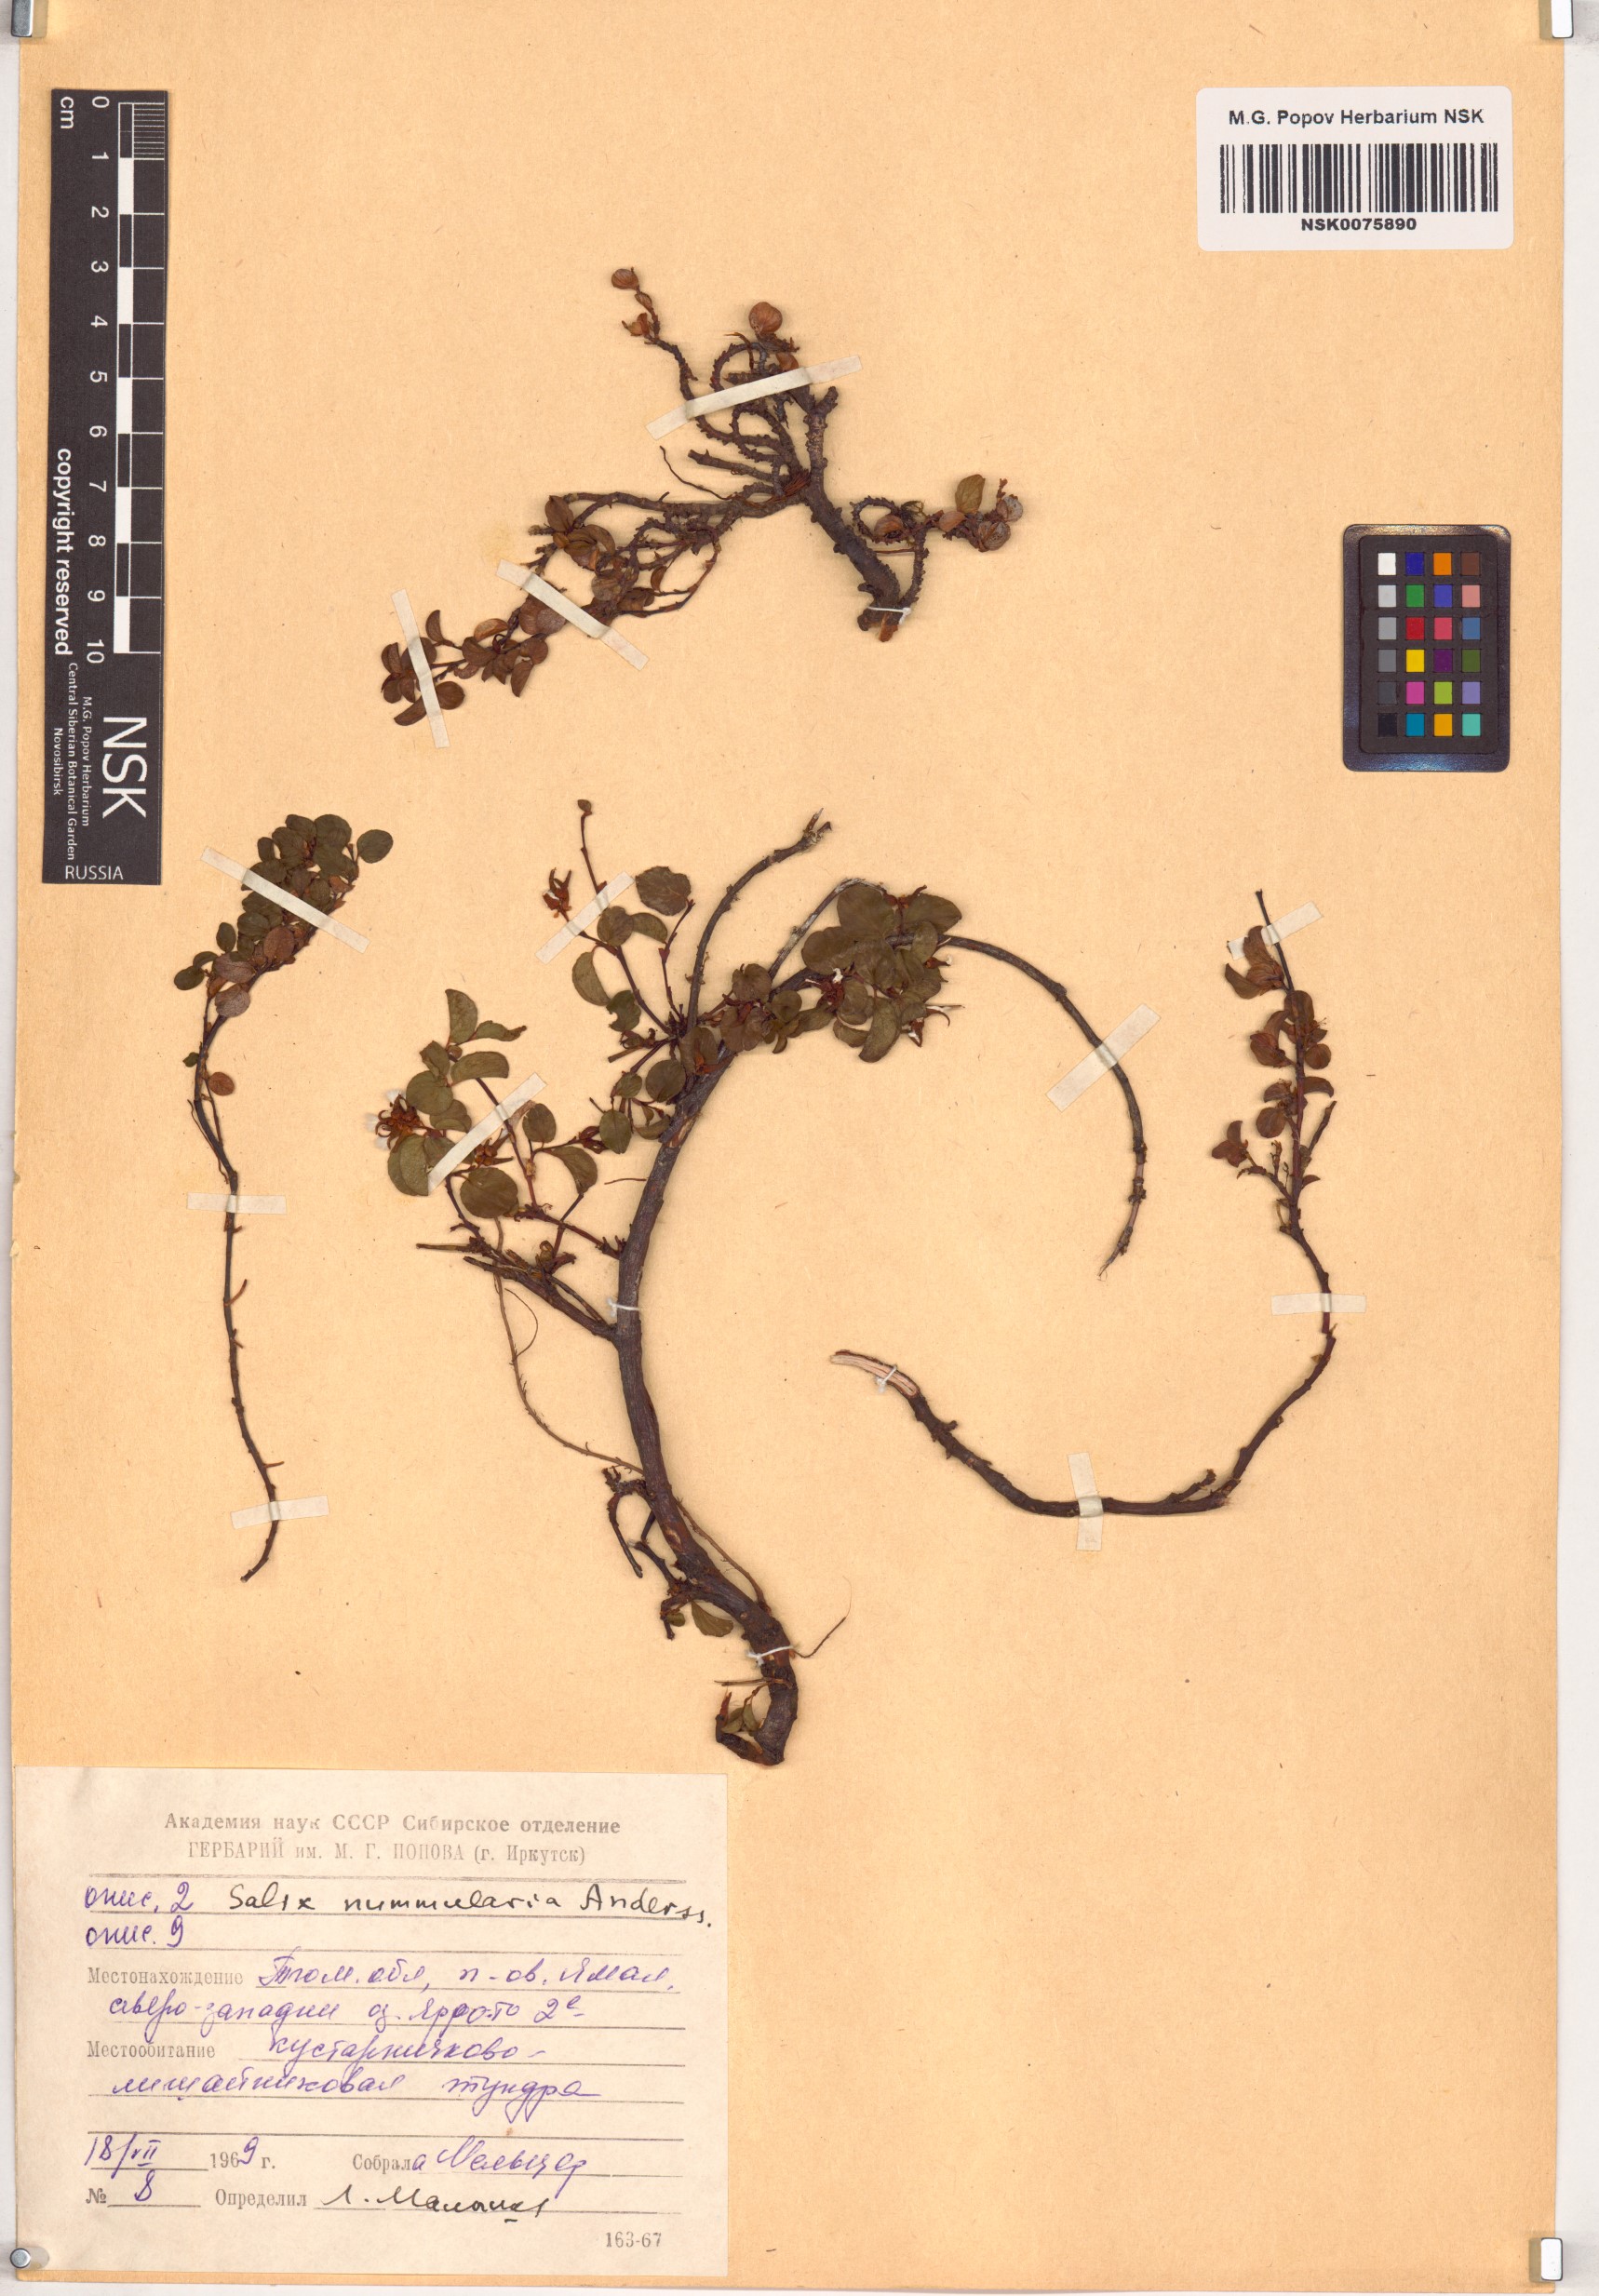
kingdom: Plantae
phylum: Tracheophyta
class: Magnoliopsida
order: Malpighiales
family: Salicaceae
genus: Salix
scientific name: Salix nummularia
